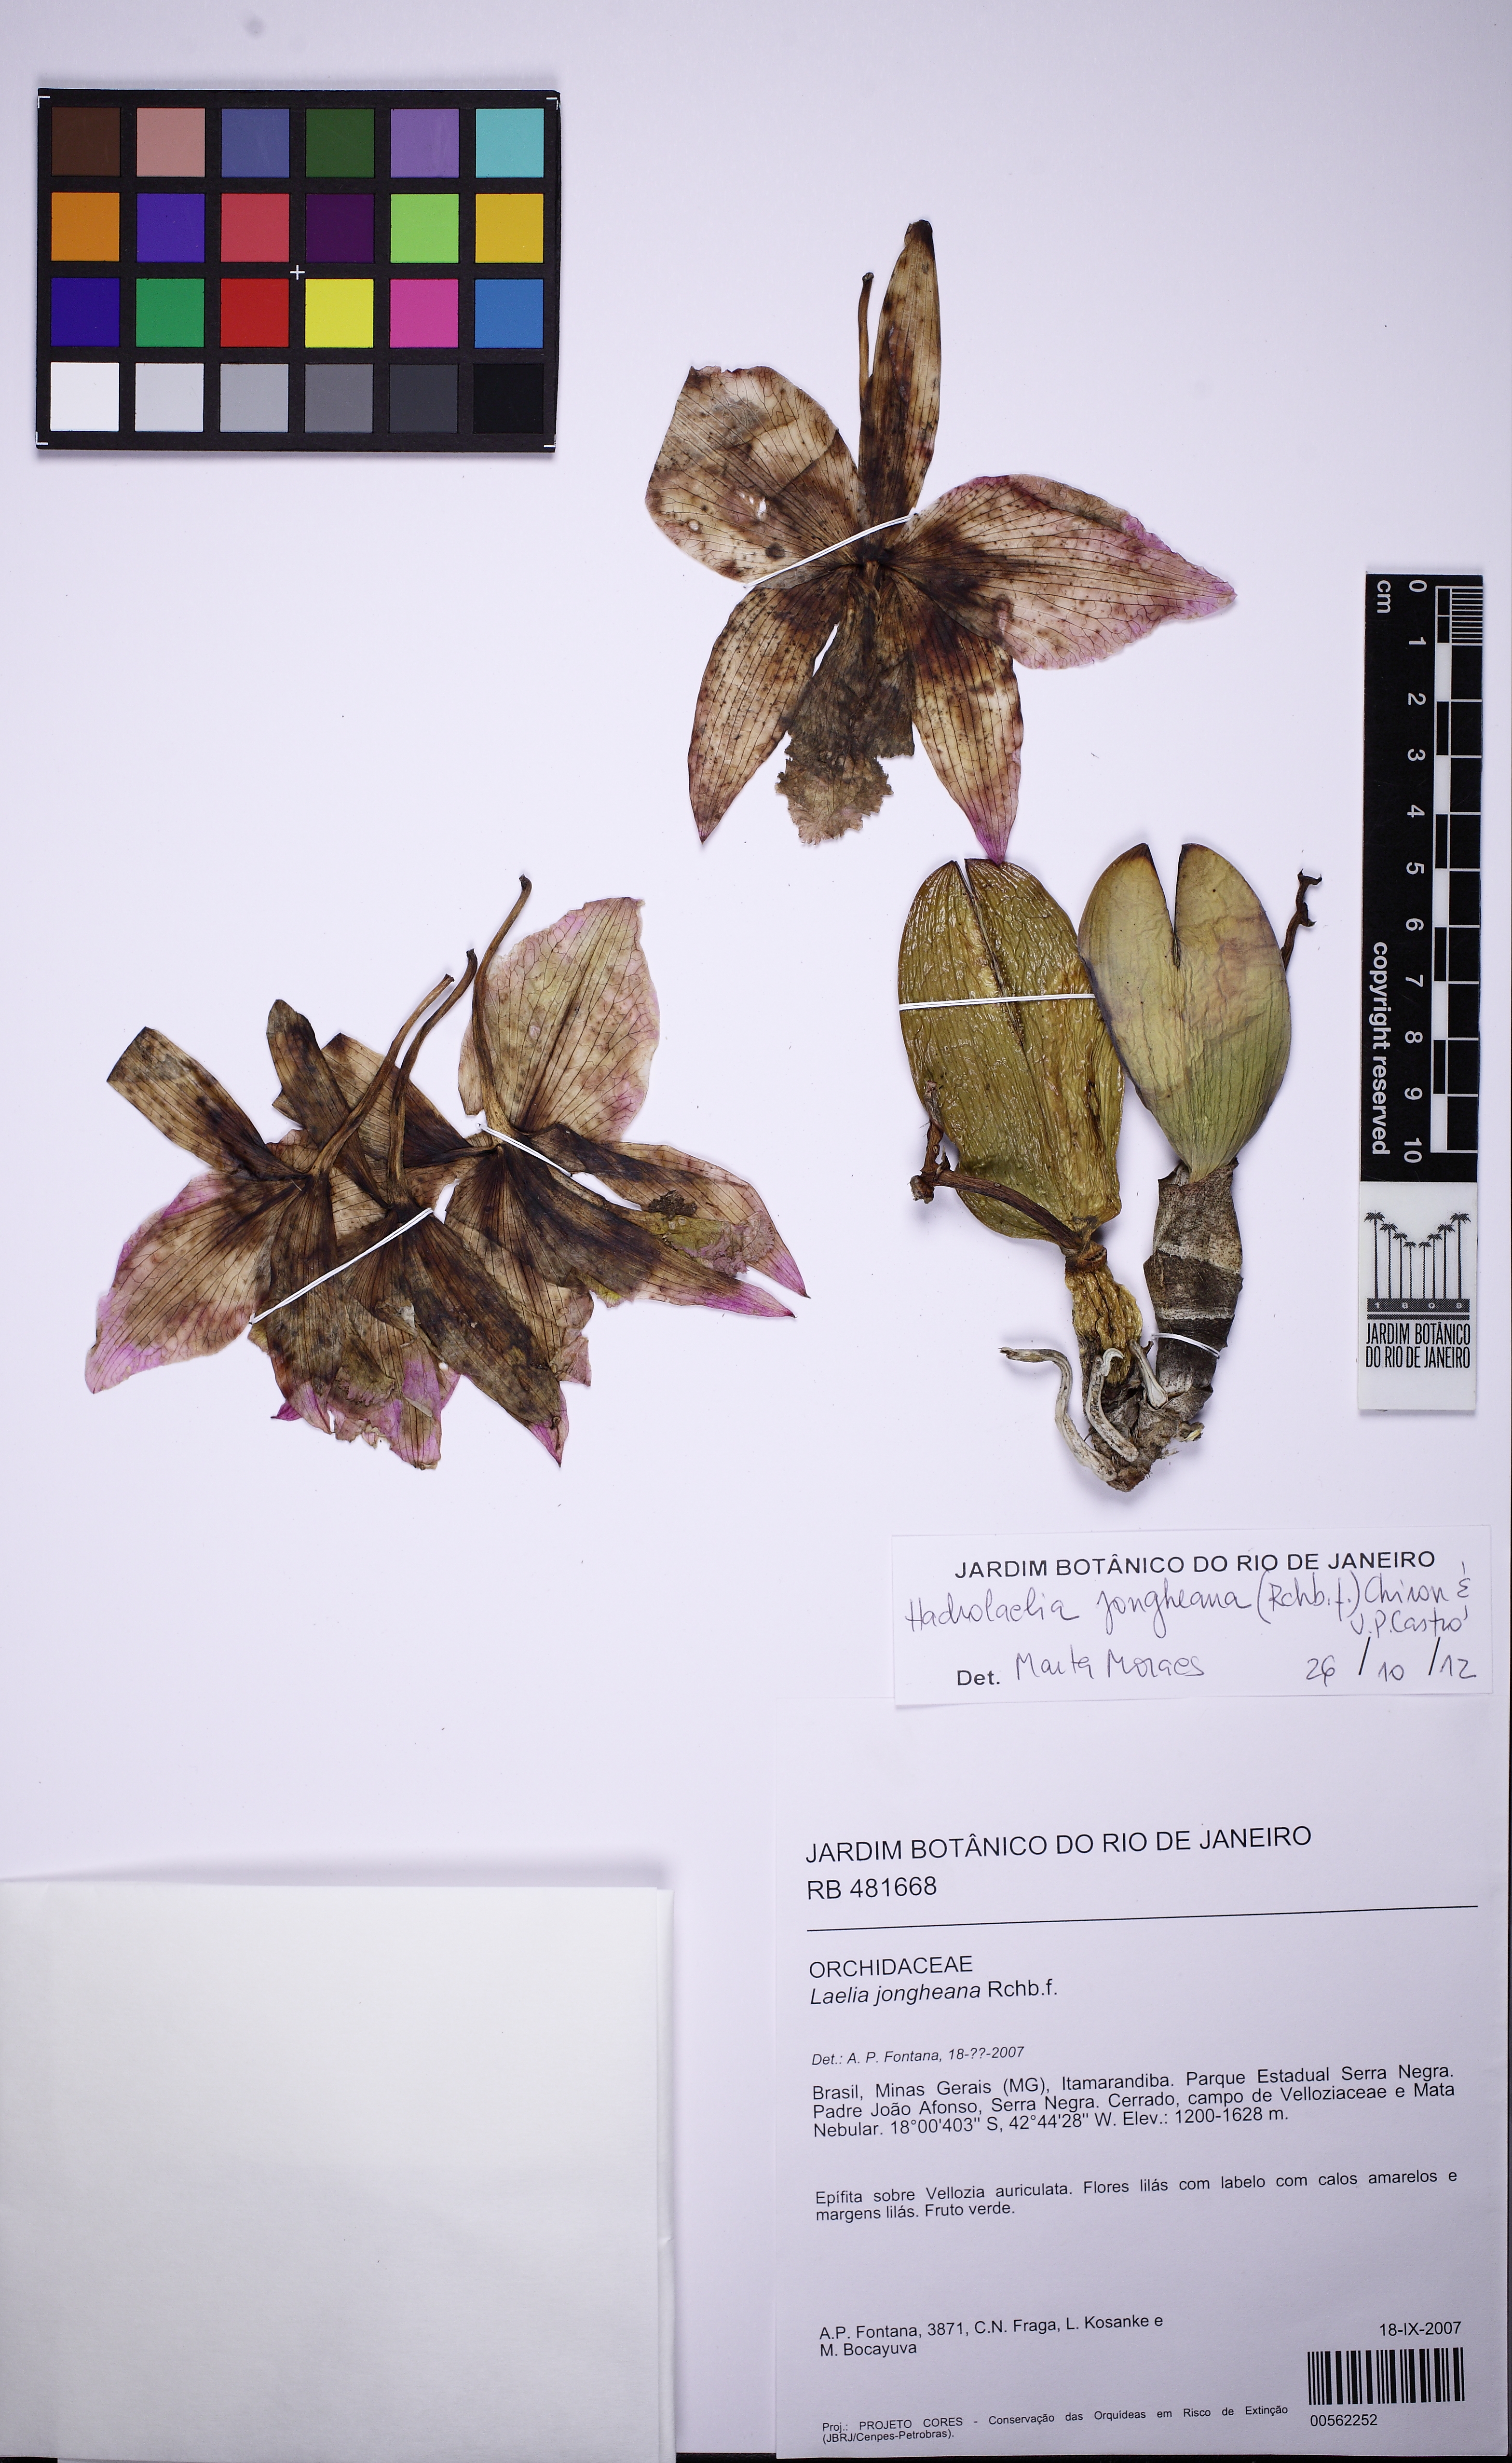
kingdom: Plantae
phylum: Tracheophyta
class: Liliopsida
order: Asparagales
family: Orchidaceae
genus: Cattleya
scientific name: Cattleya jongheana
